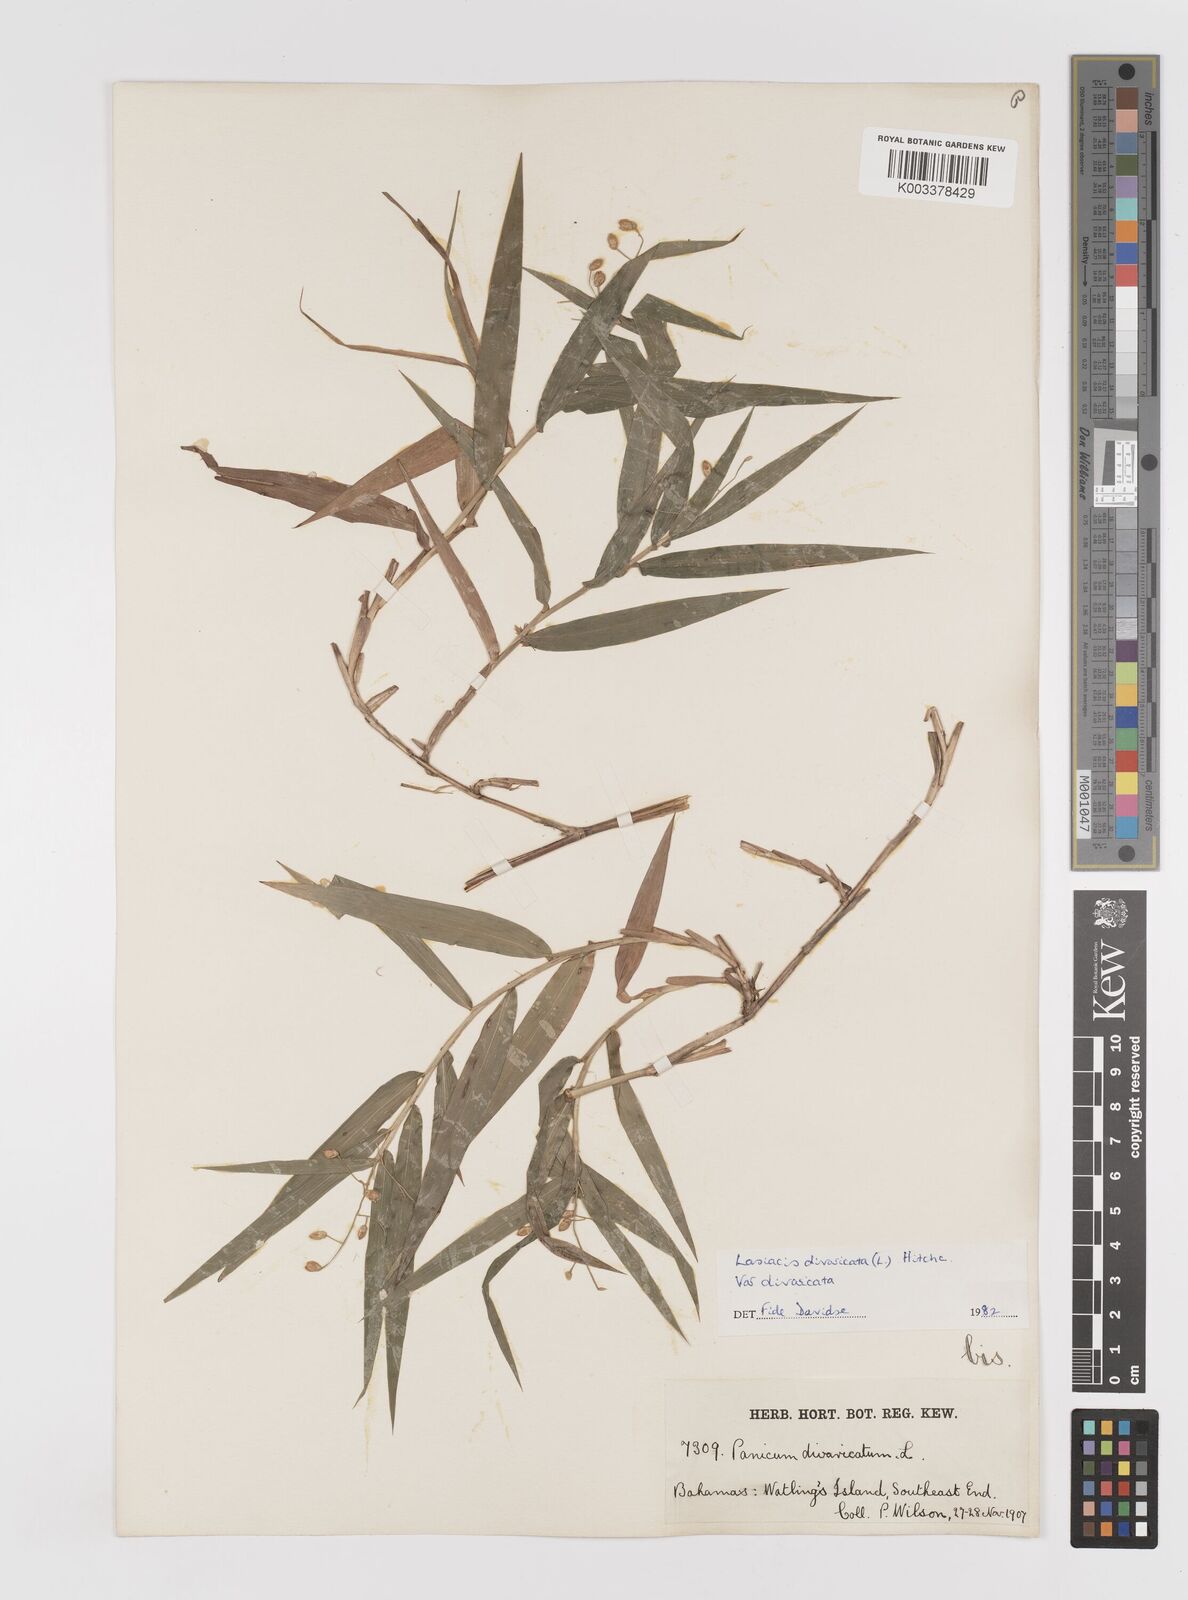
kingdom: Plantae
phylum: Tracheophyta
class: Liliopsida
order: Poales
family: Poaceae
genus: Lasiacis
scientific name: Lasiacis divaricata
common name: Smallcane
